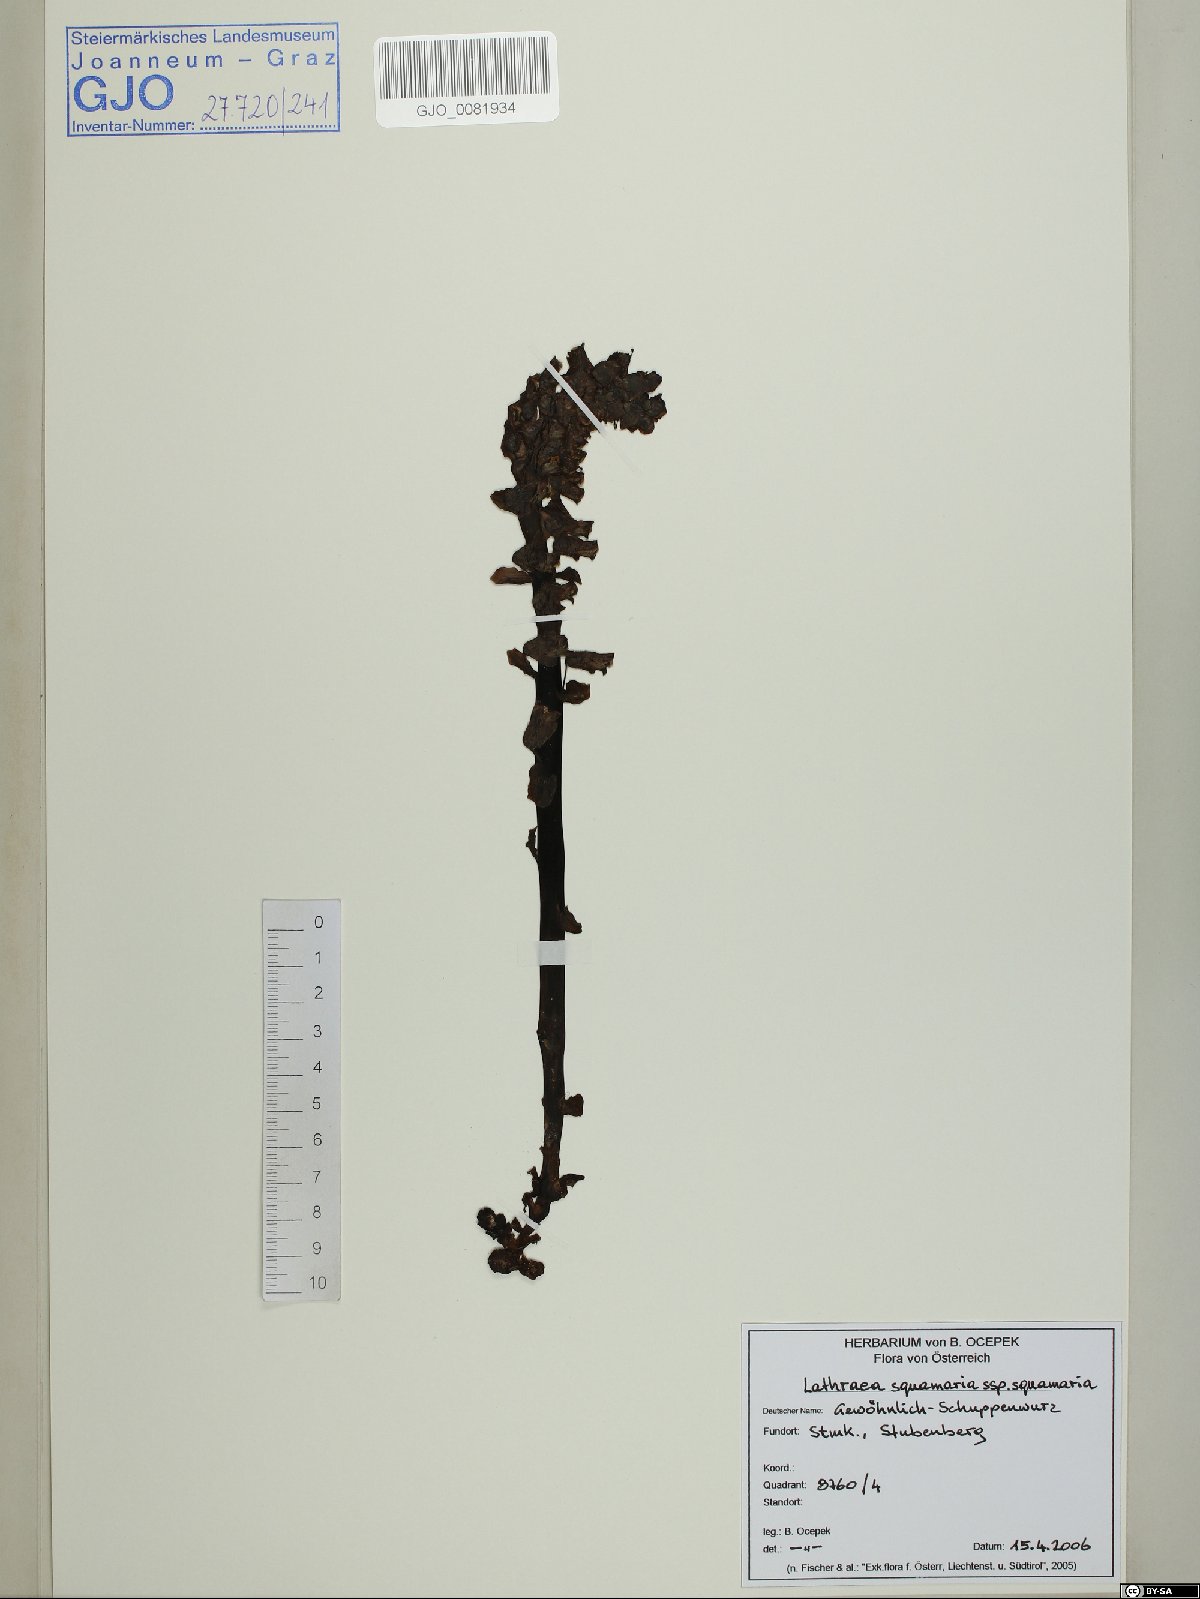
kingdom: Plantae
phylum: Tracheophyta
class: Magnoliopsida
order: Lamiales
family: Orobanchaceae
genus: Lathraea
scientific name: Lathraea squamaria
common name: Toothwort
